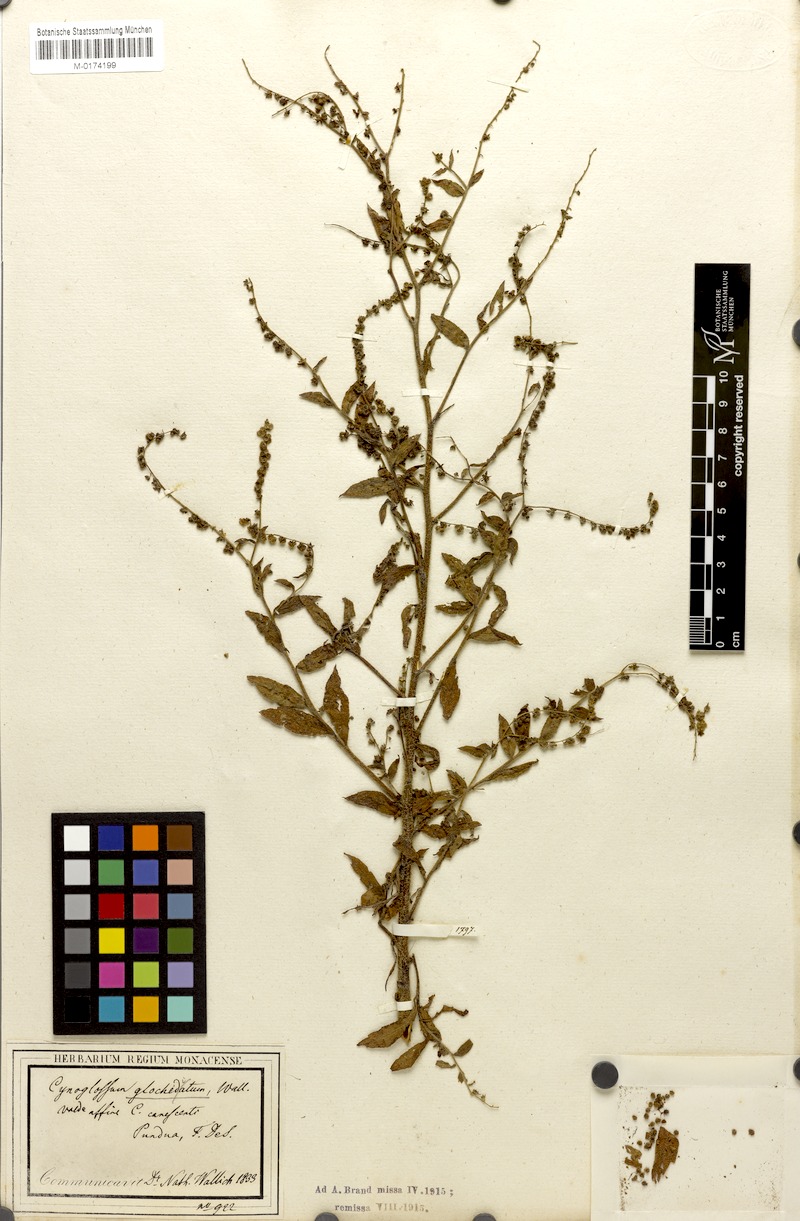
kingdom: Plantae
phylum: Tracheophyta
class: Magnoliopsida
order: Boraginales
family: Boraginaceae
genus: Paracynoglossum
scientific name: Paracynoglossum glochidiatum
